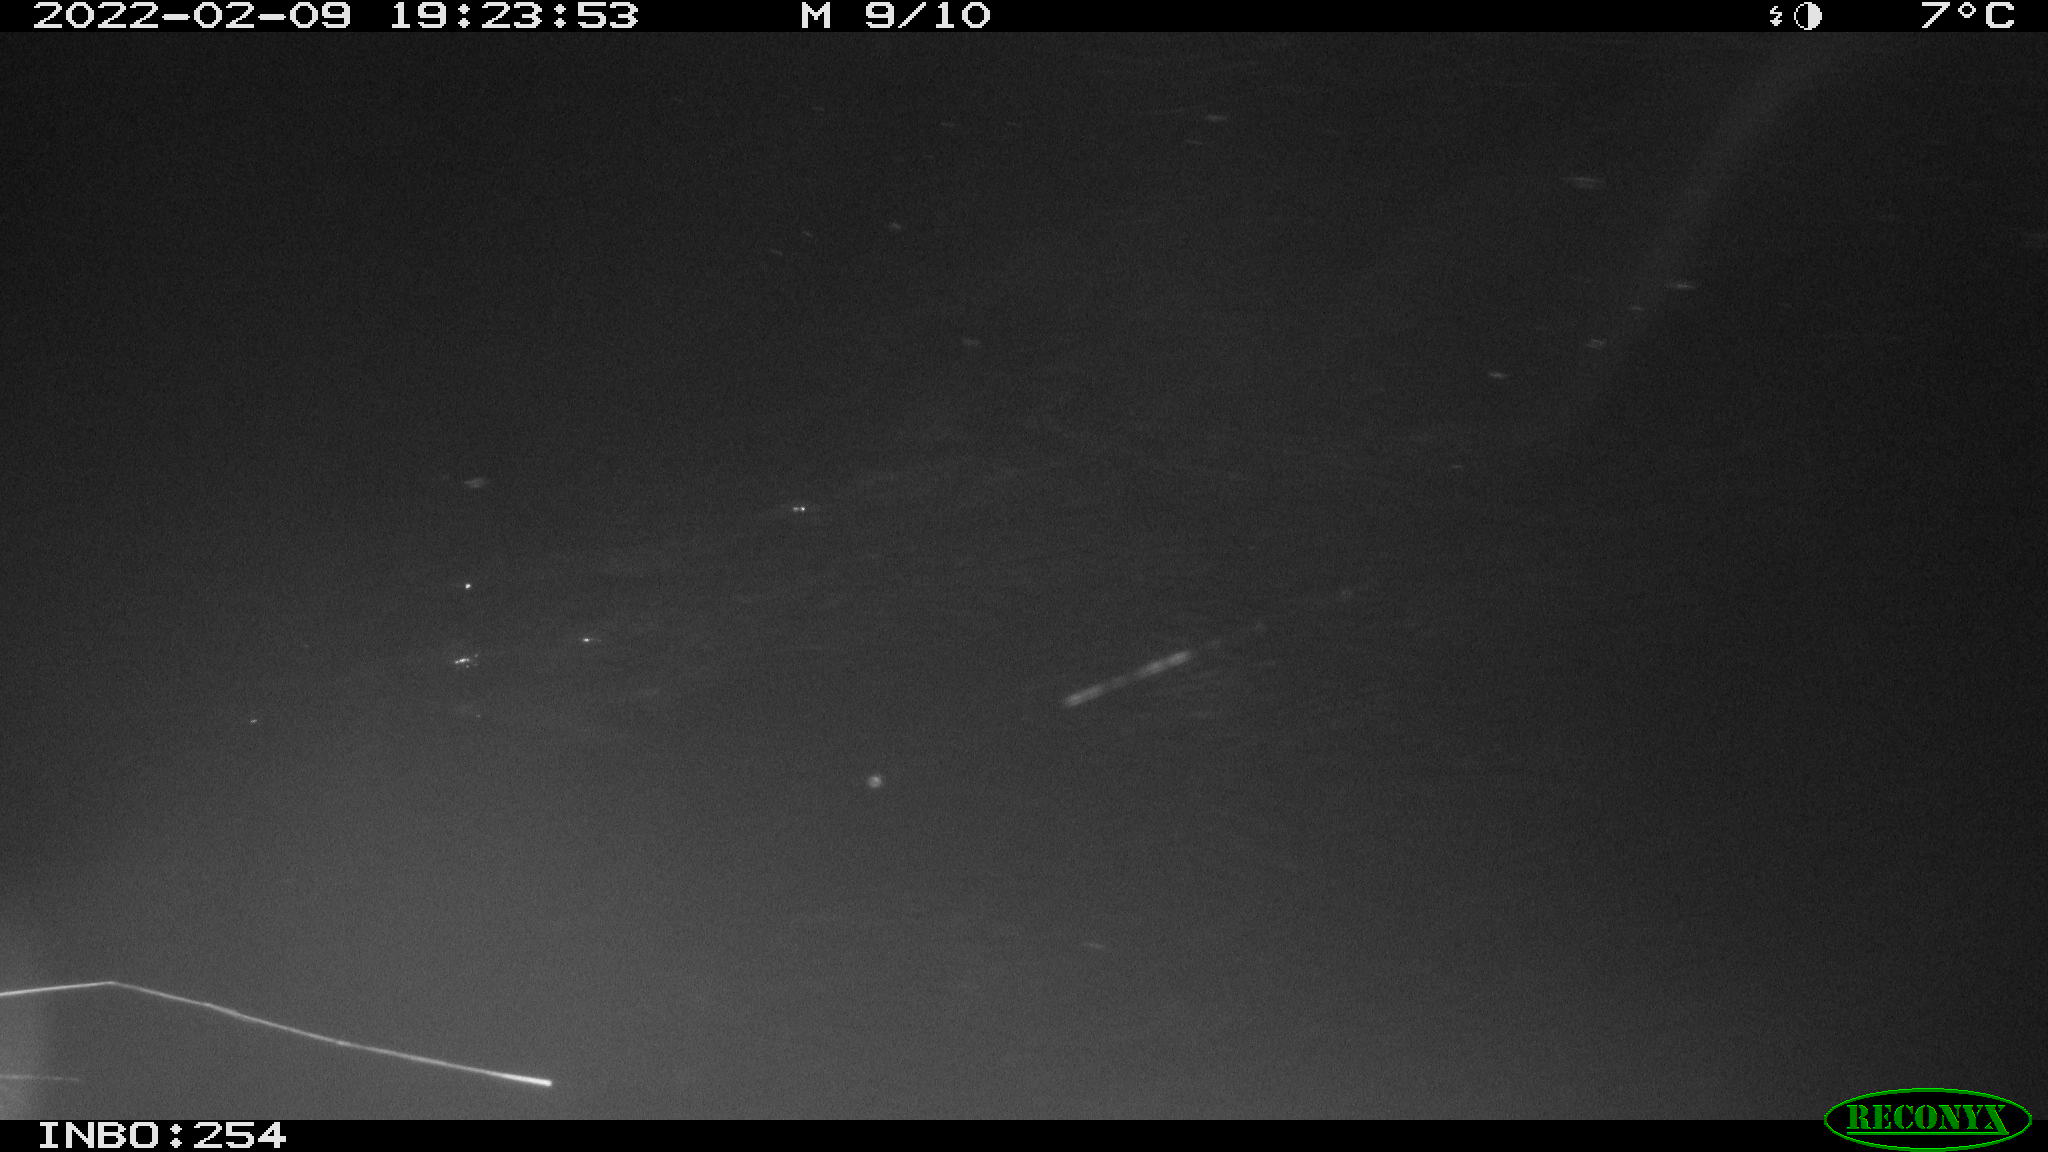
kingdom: Animalia
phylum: Chordata
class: Mammalia
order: Rodentia
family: Muridae
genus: Rattus
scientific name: Rattus norvegicus
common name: Brown rat
